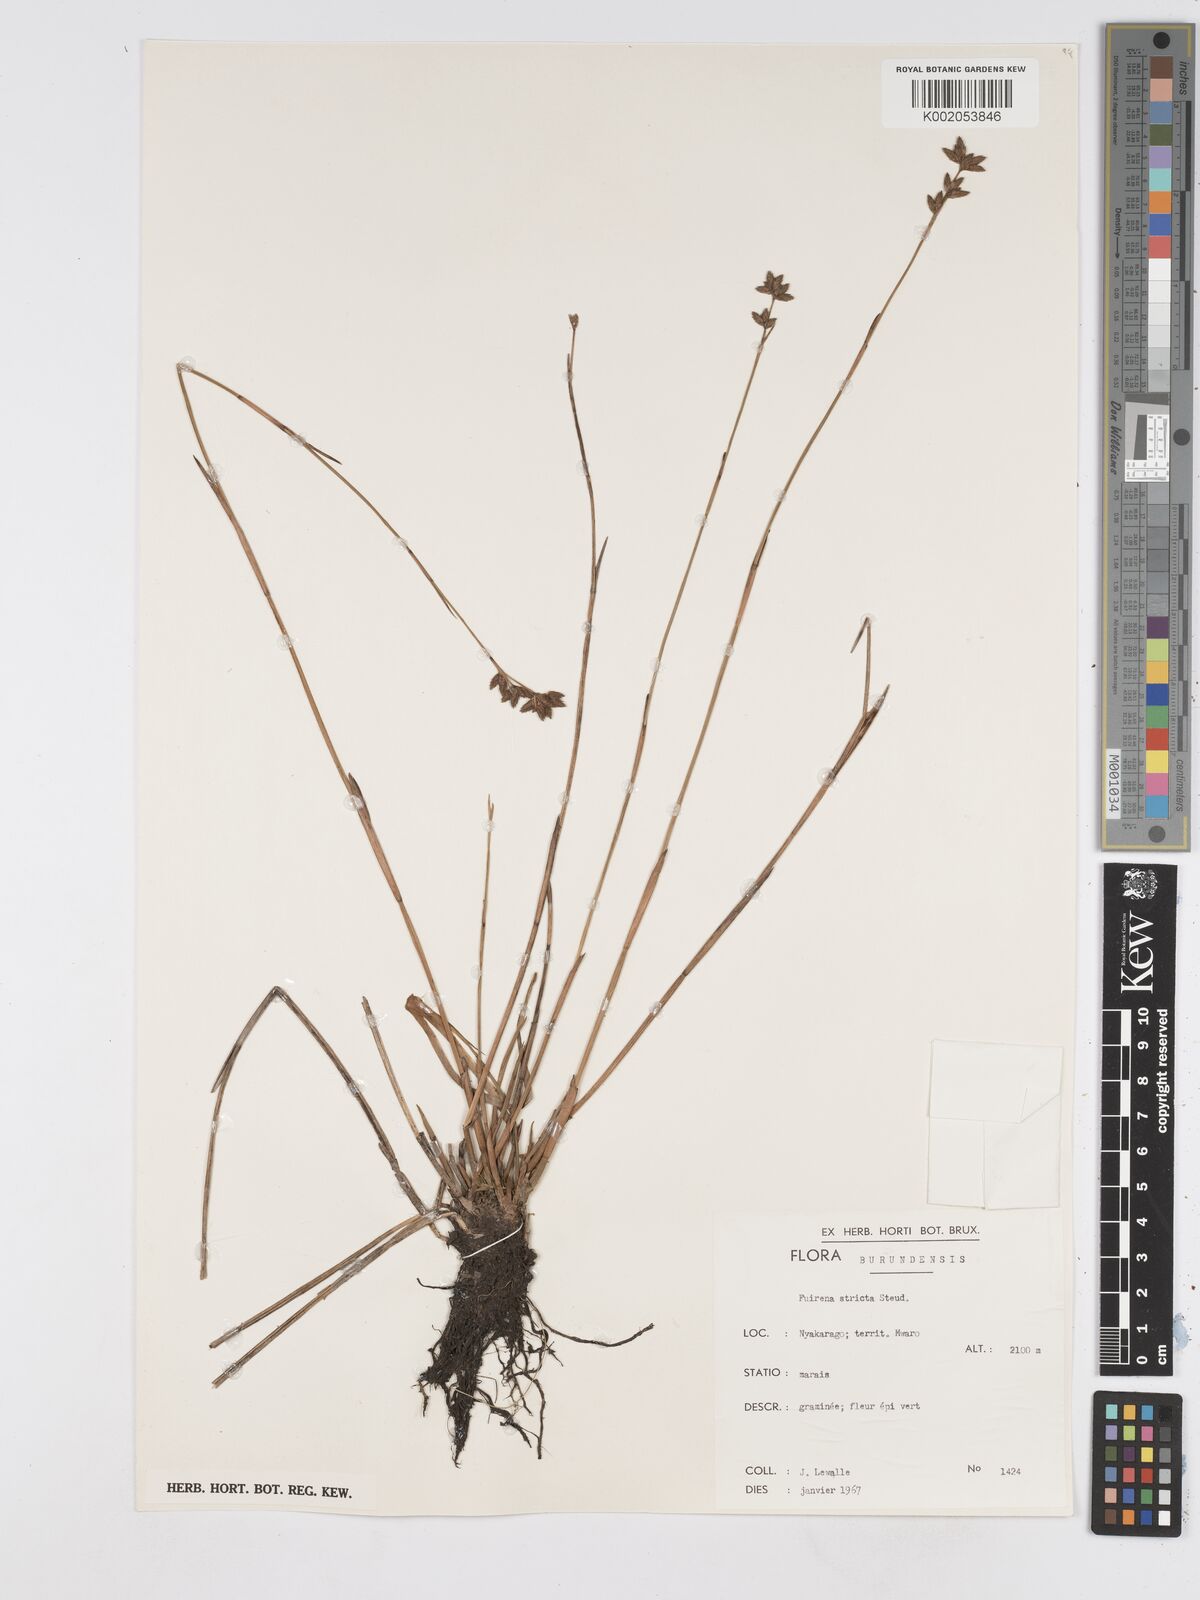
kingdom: Plantae
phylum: Tracheophyta
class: Liliopsida
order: Poales
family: Cyperaceae
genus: Fuirena
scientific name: Fuirena stricta
